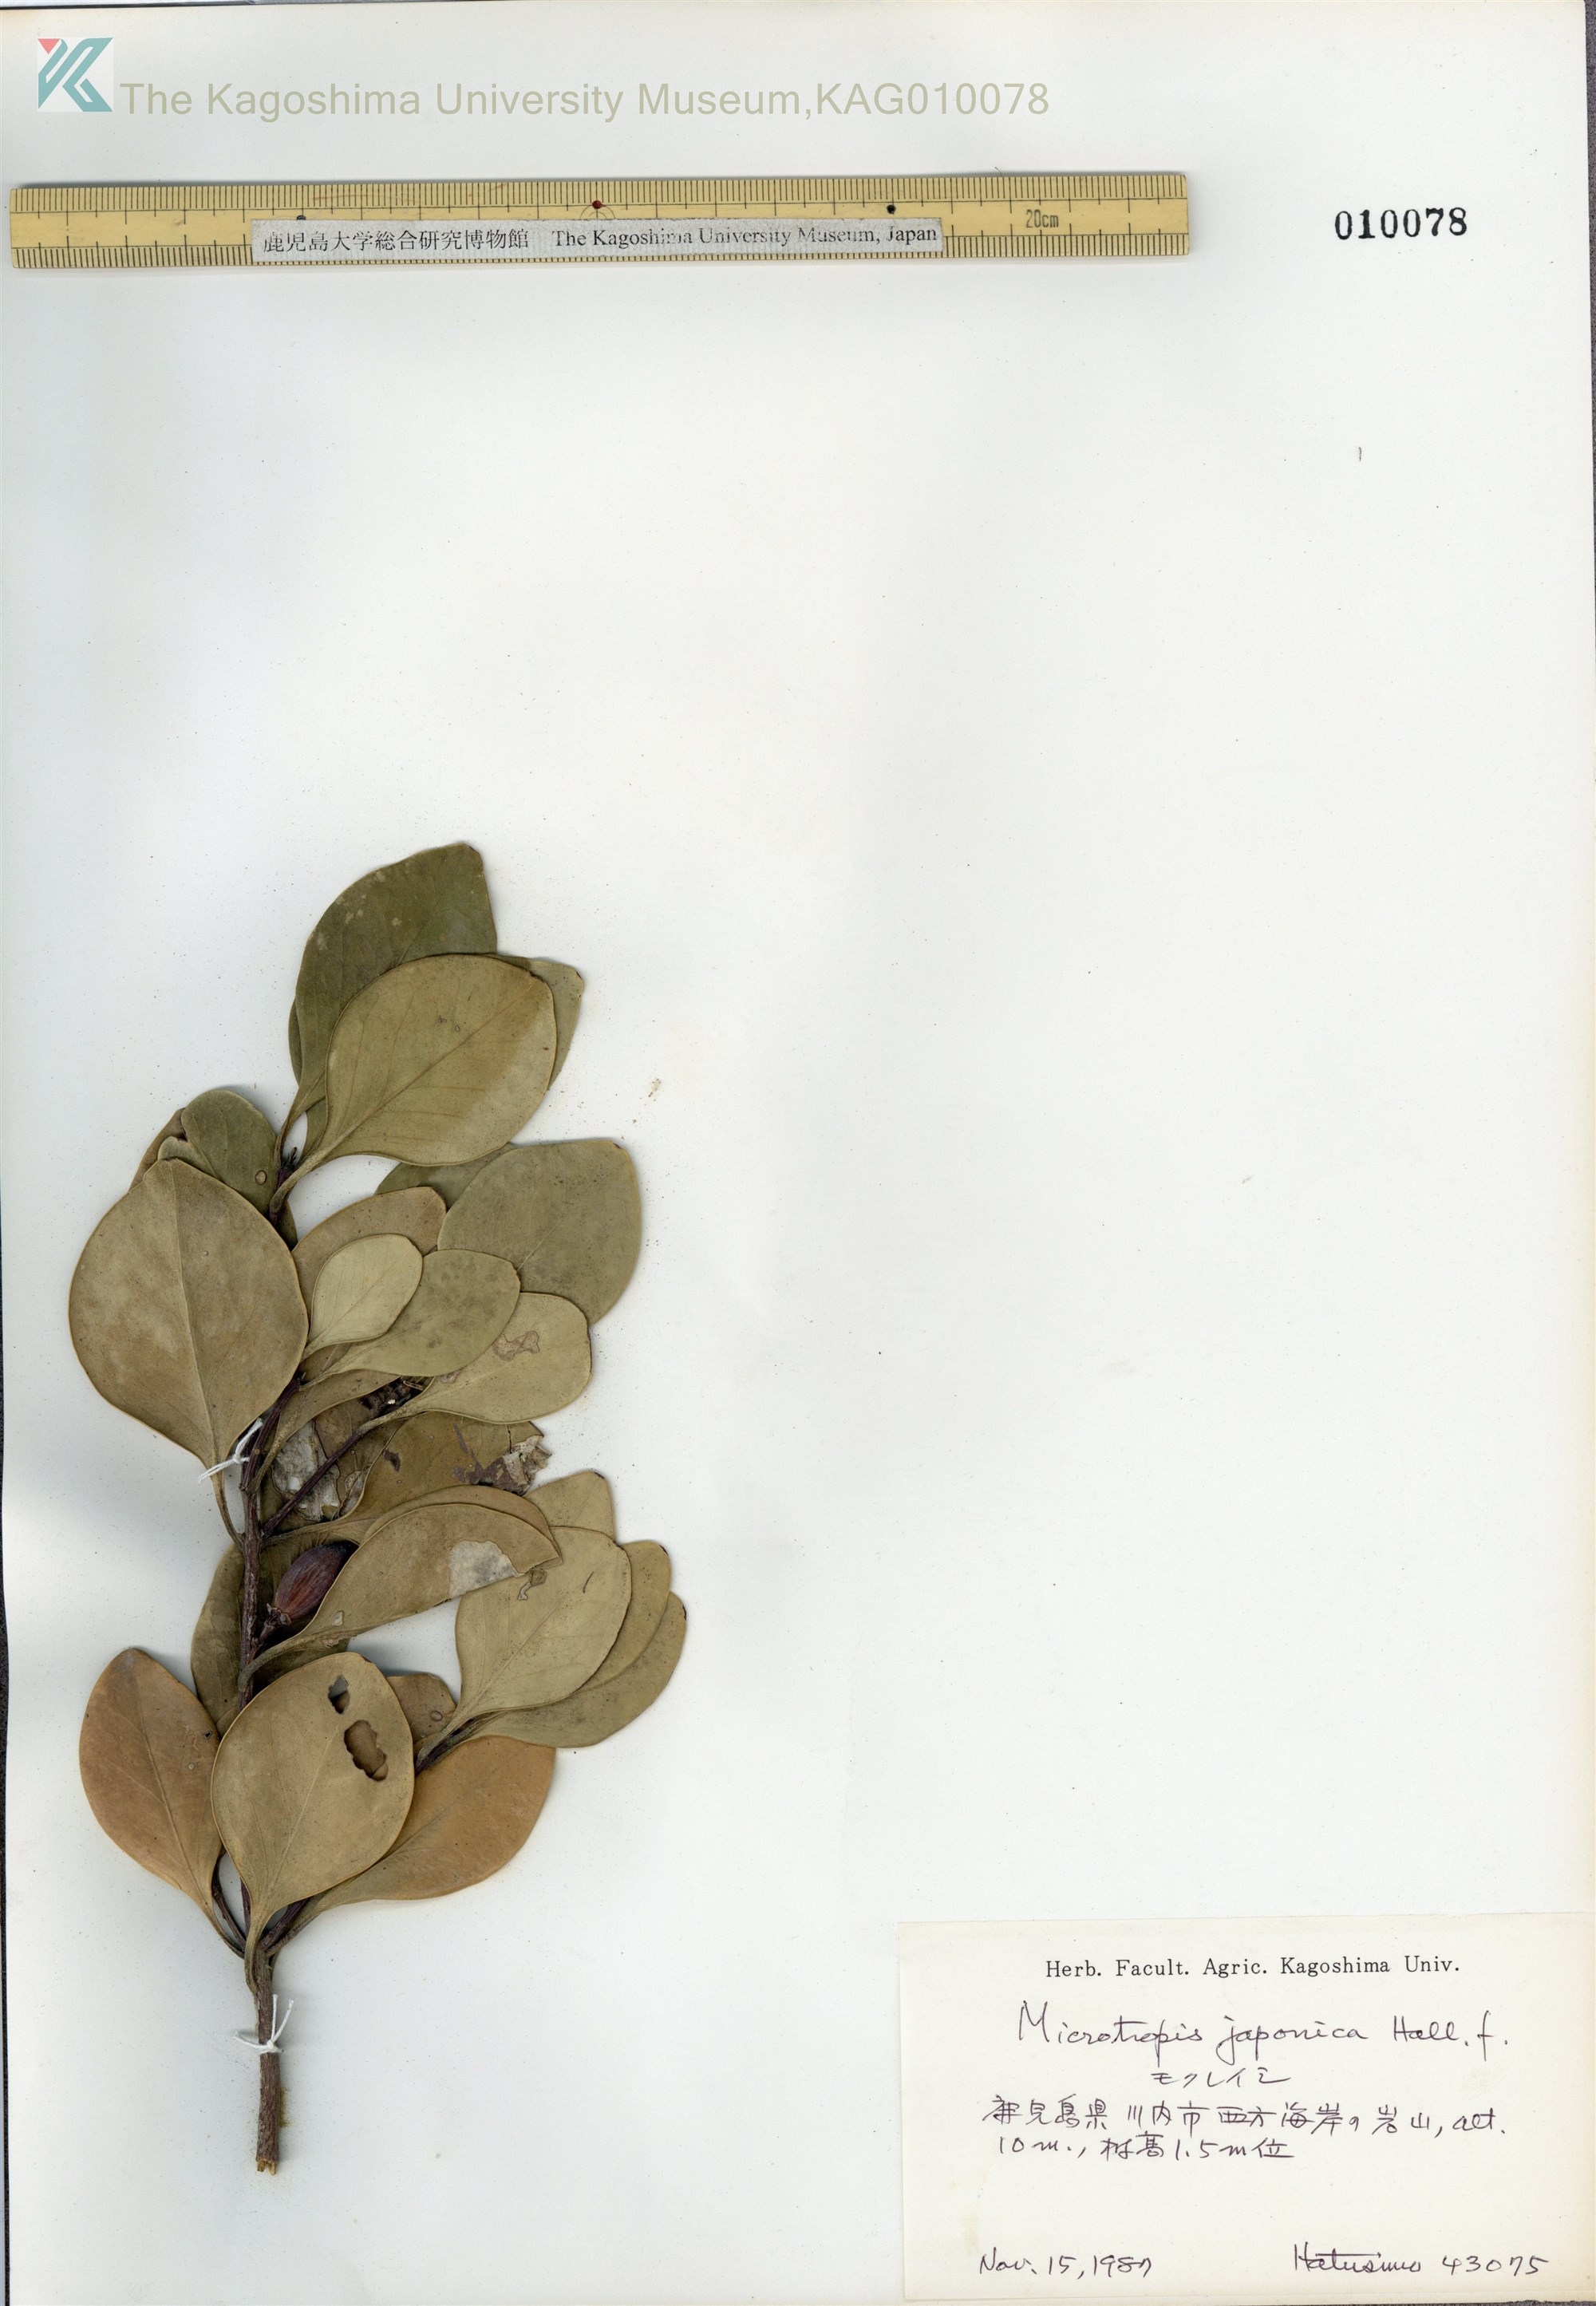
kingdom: Plantae
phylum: Tracheophyta
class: Magnoliopsida
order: Celastrales
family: Celastraceae
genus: Microtropis
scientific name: Microtropis japonica
